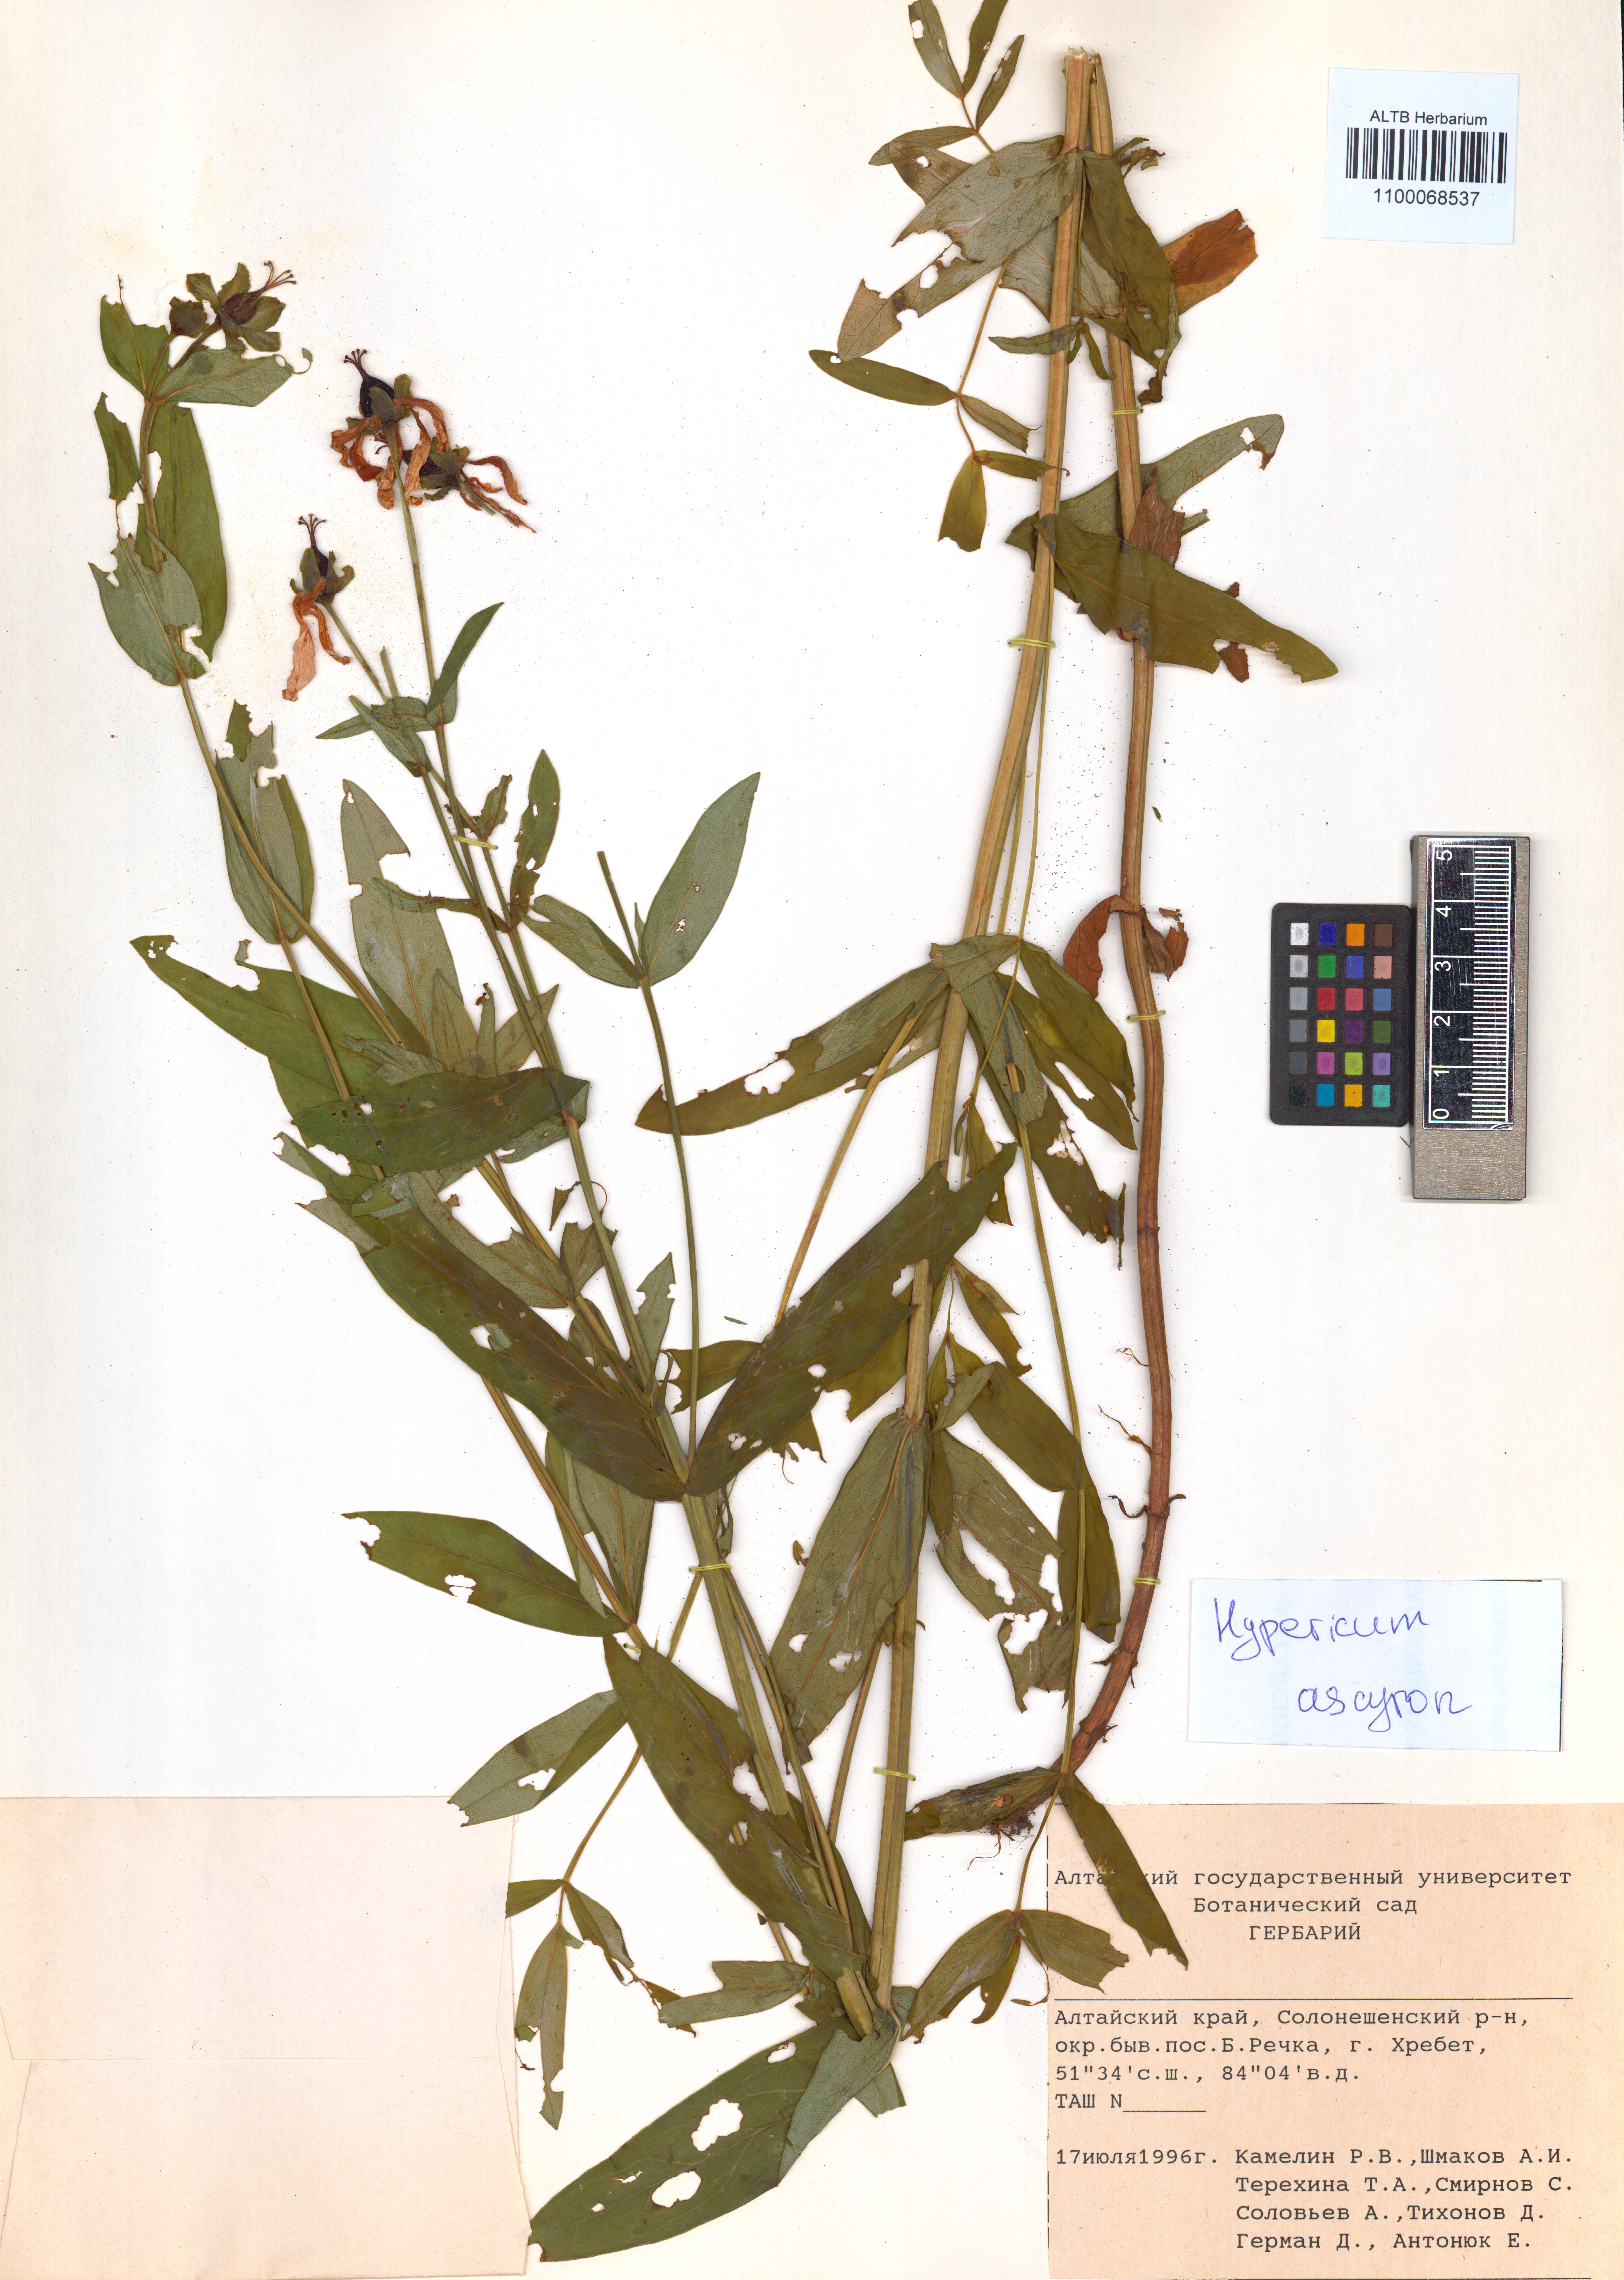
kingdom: Plantae
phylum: Tracheophyta
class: Magnoliopsida
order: Malpighiales
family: Hypericaceae
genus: Hypericum
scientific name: Hypericum ascyron
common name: Giant st. john's-wort
